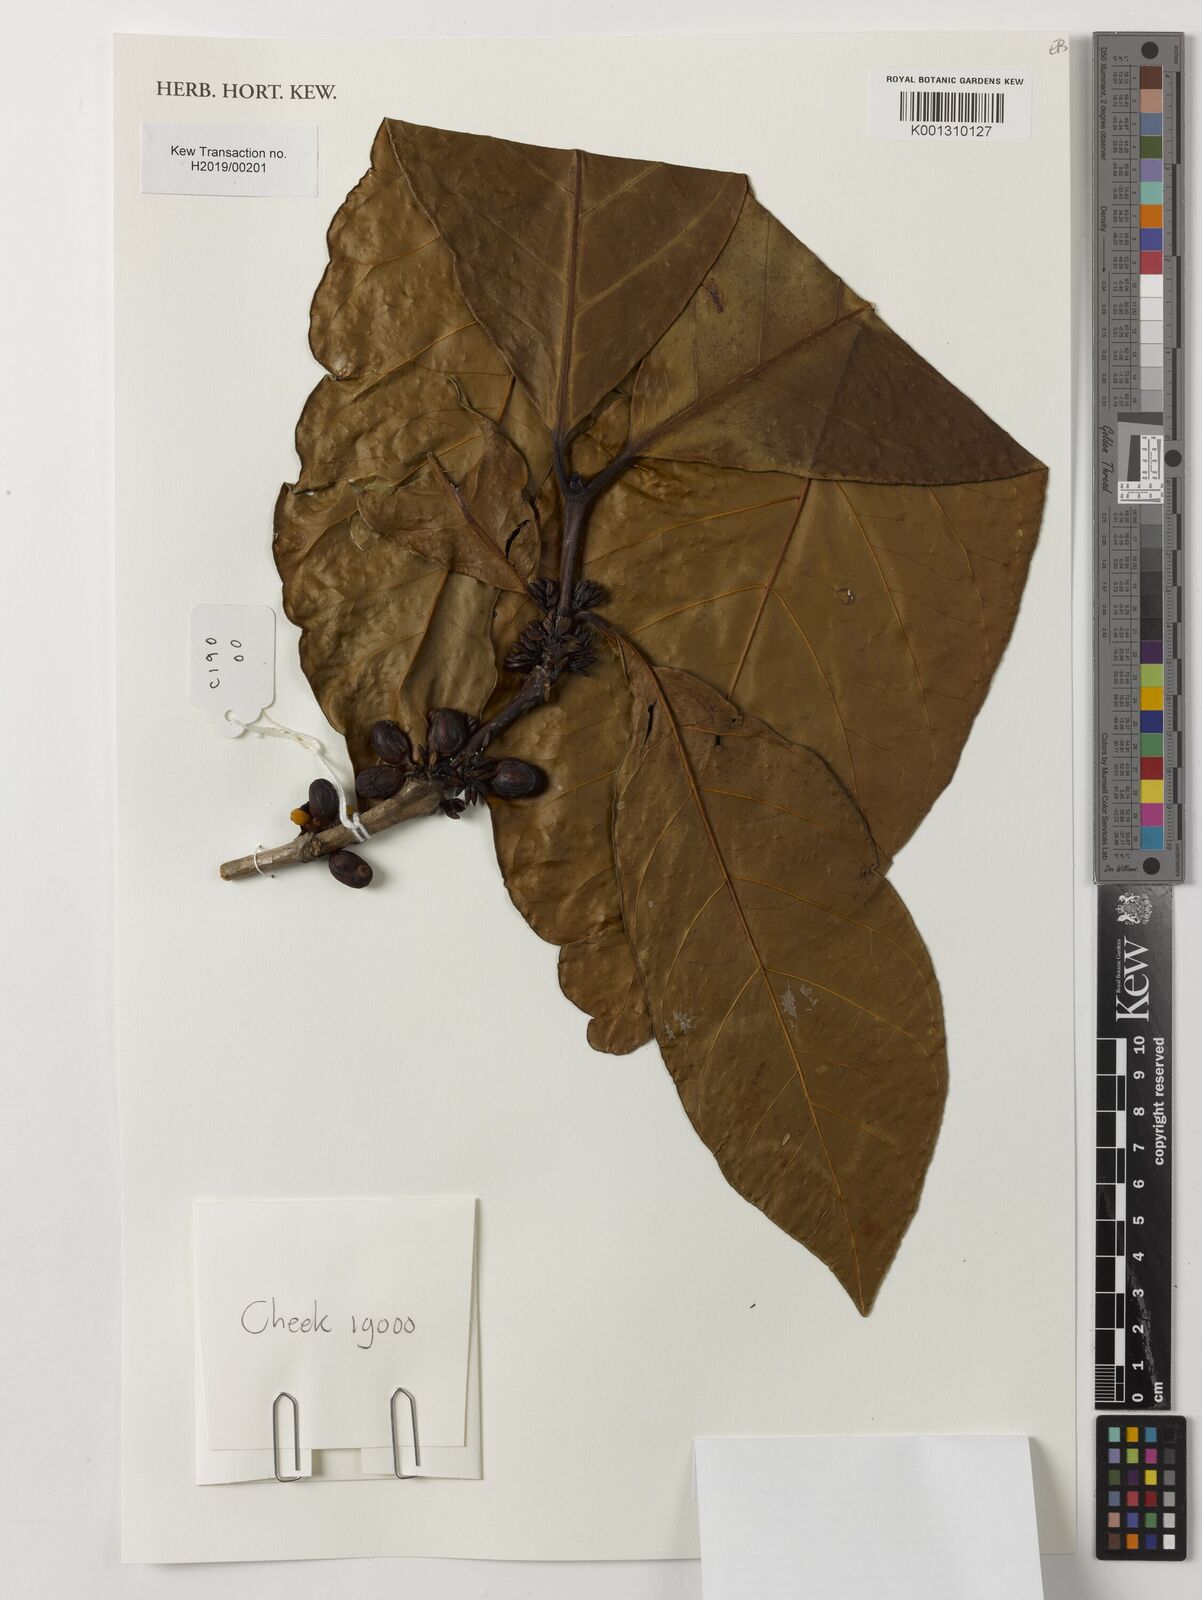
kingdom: Plantae
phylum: Tracheophyta
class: Magnoliopsida
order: Gentianales
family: Rubiaceae
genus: Coffea
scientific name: Coffea liberica
